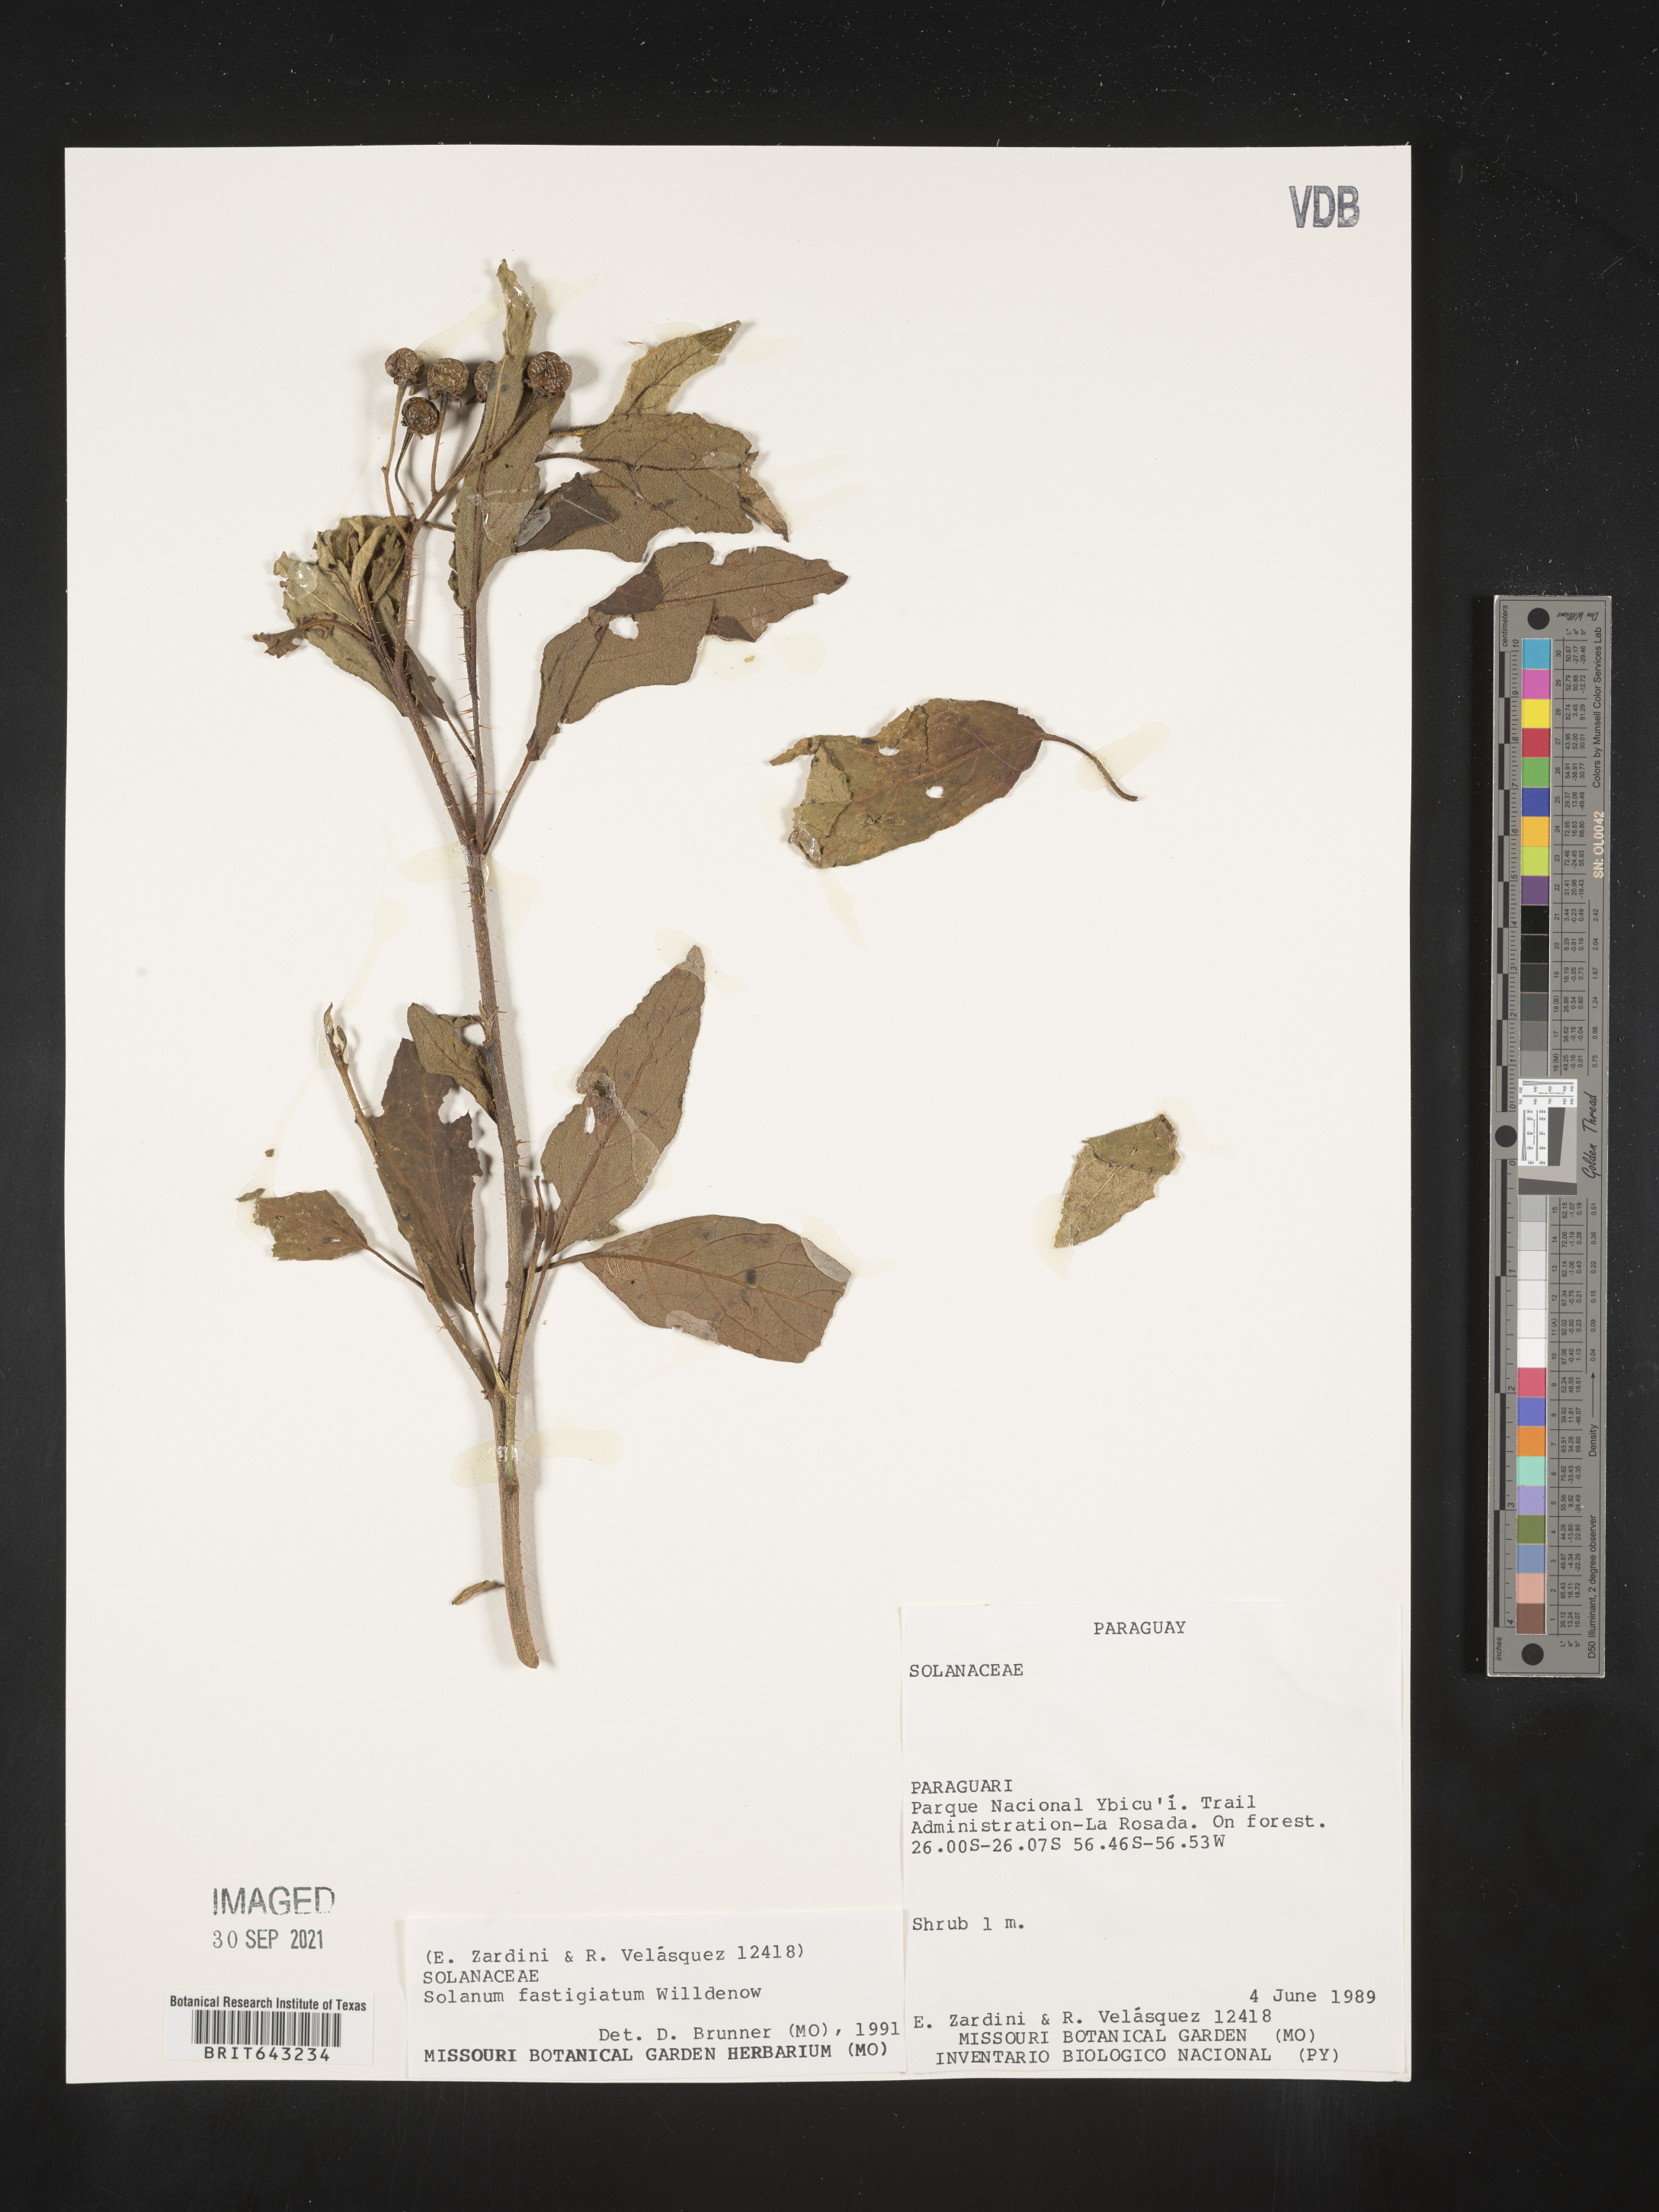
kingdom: Plantae
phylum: Tracheophyta
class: Magnoliopsida
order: Solanales
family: Solanaceae
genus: Solanum
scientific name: Solanum
